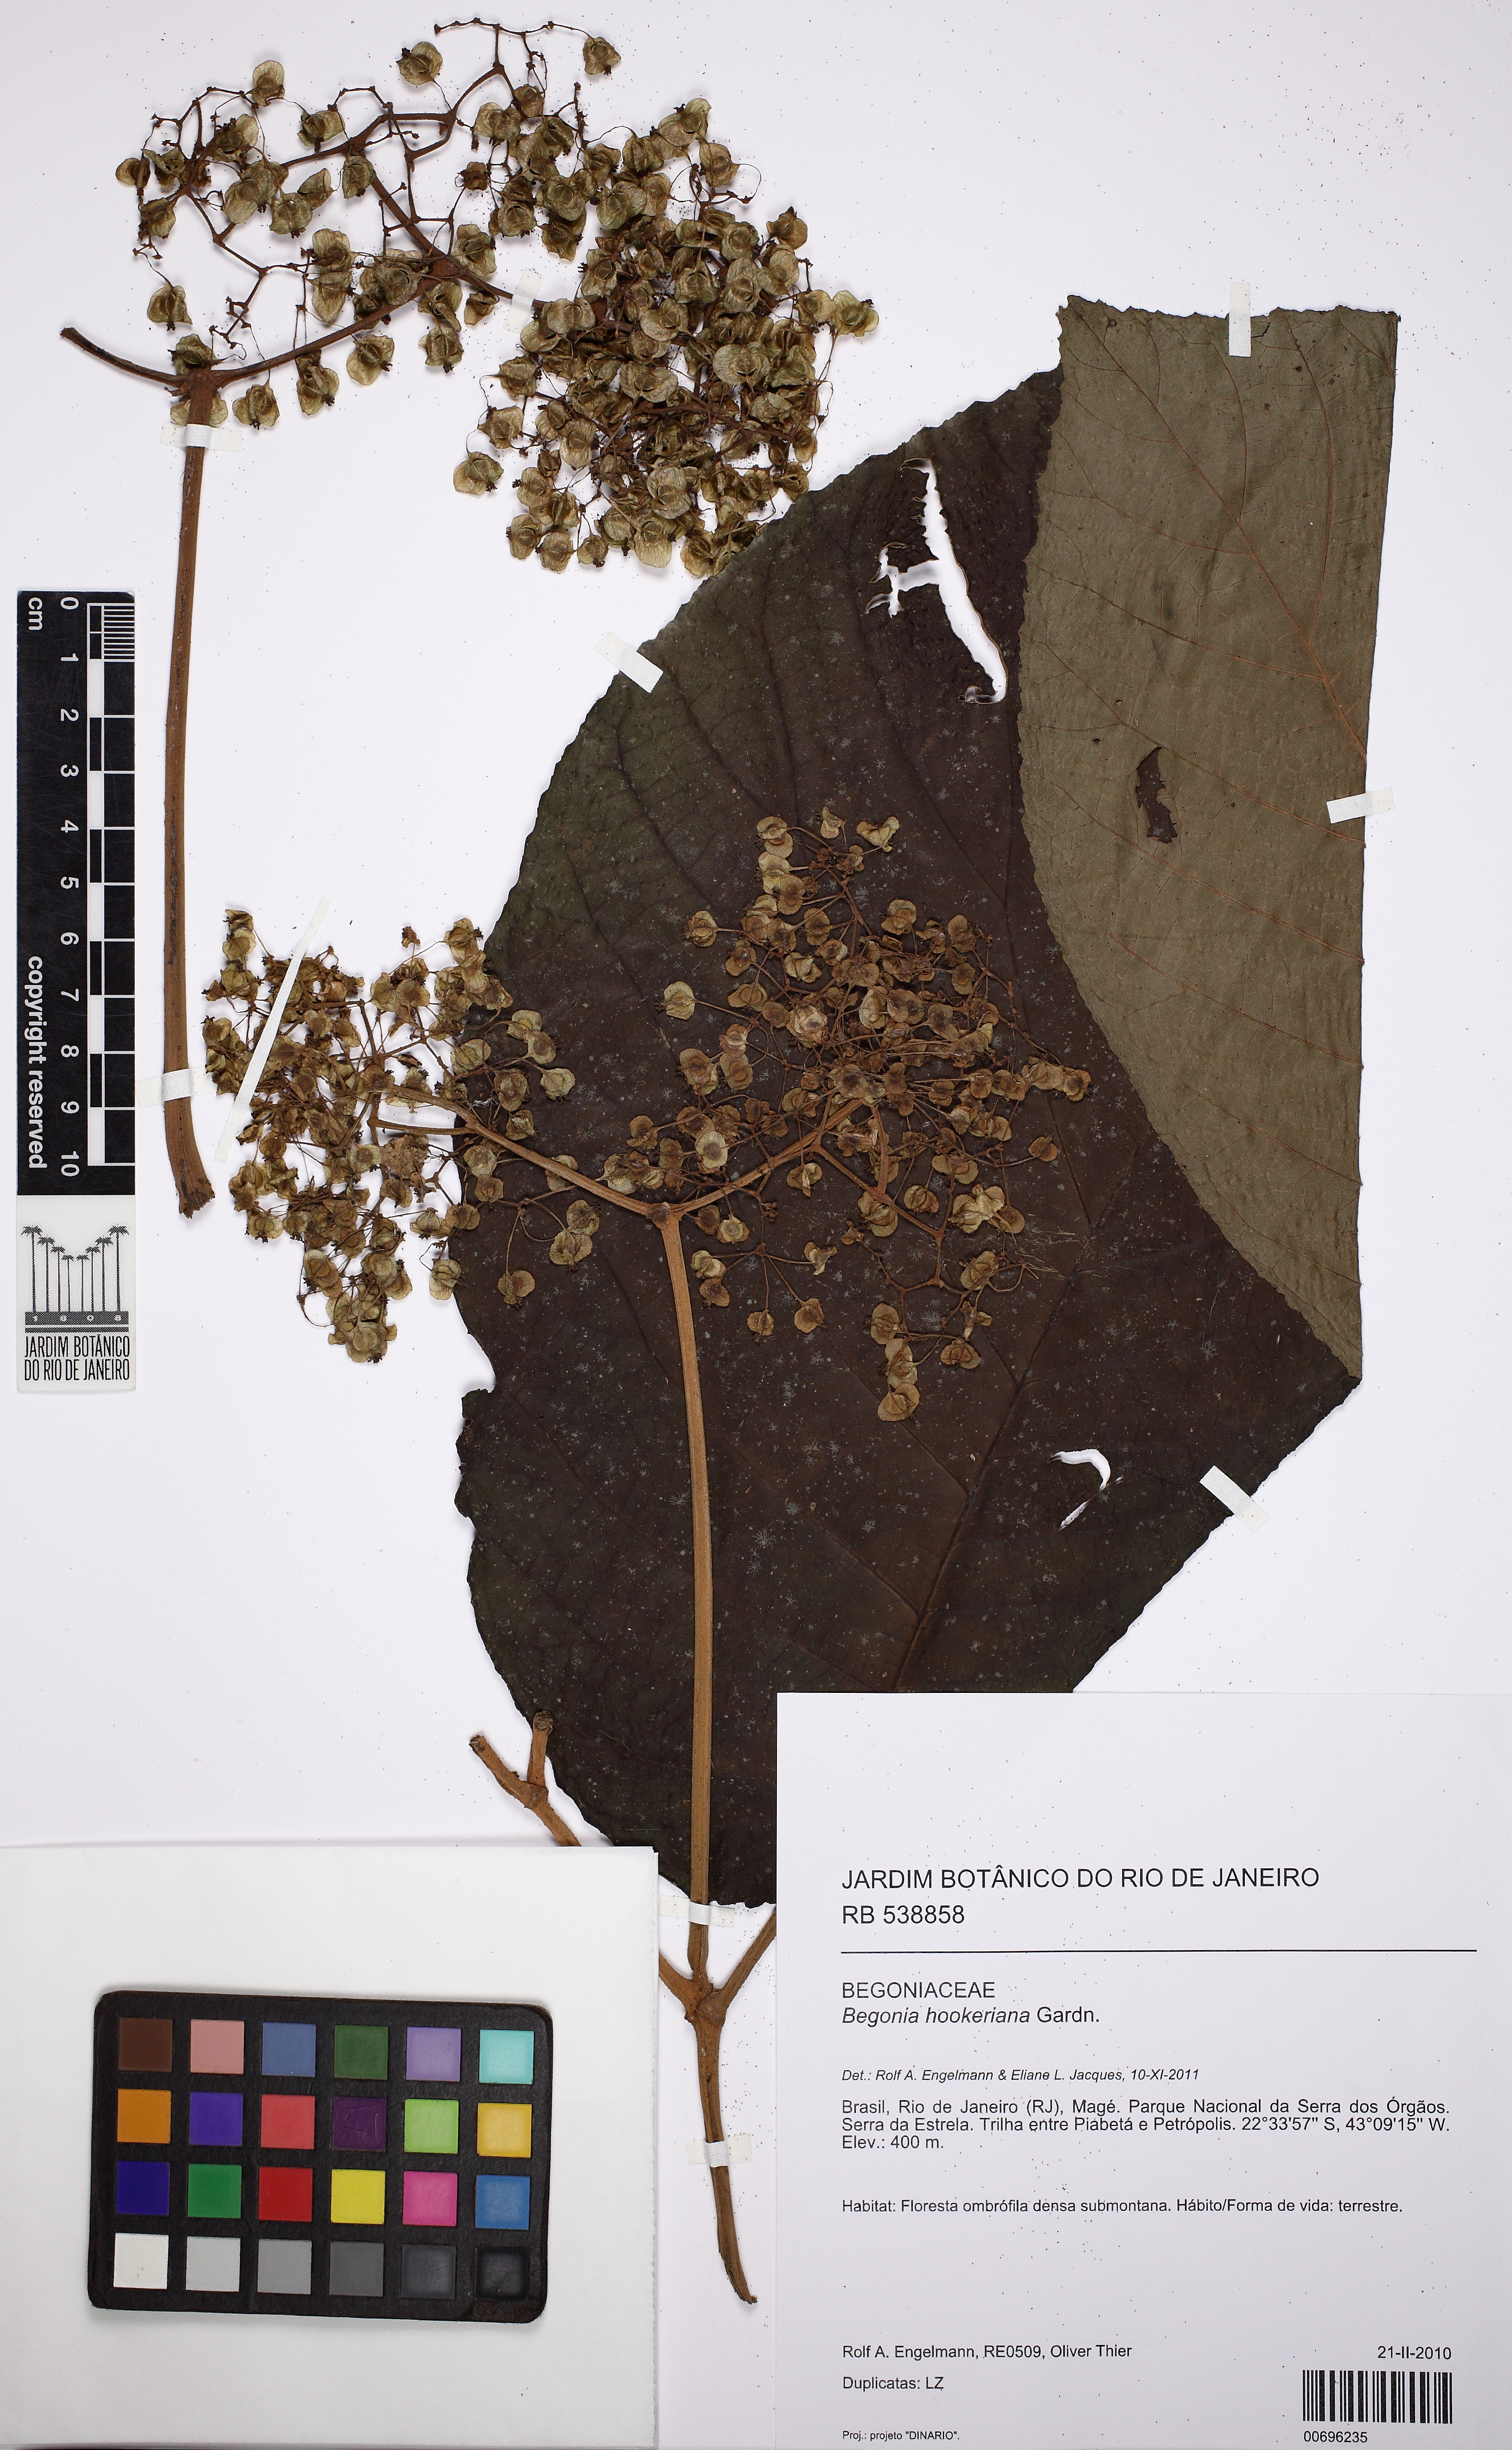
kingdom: Plantae
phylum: Tracheophyta
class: Magnoliopsida
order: Cucurbitales
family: Begoniaceae
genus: Begonia
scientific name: Begonia hookeriana
